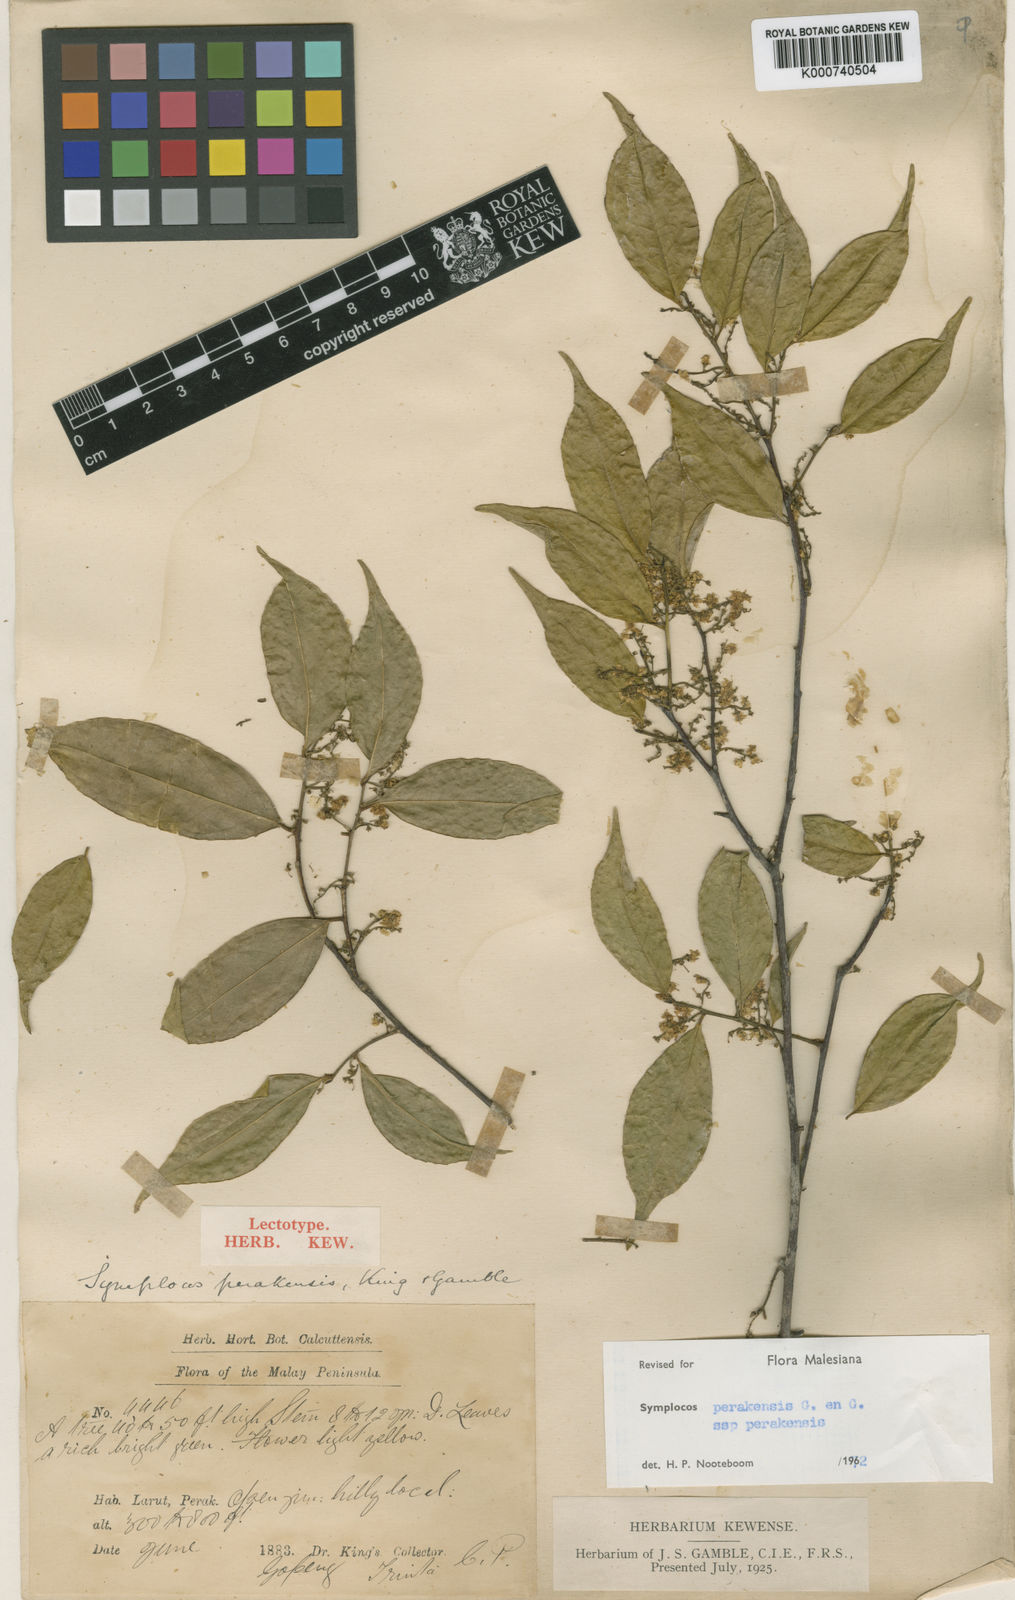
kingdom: Plantae
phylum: Tracheophyta
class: Magnoliopsida
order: Ericales
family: Symplocaceae
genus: Symplocos
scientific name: Symplocos ophirensis
